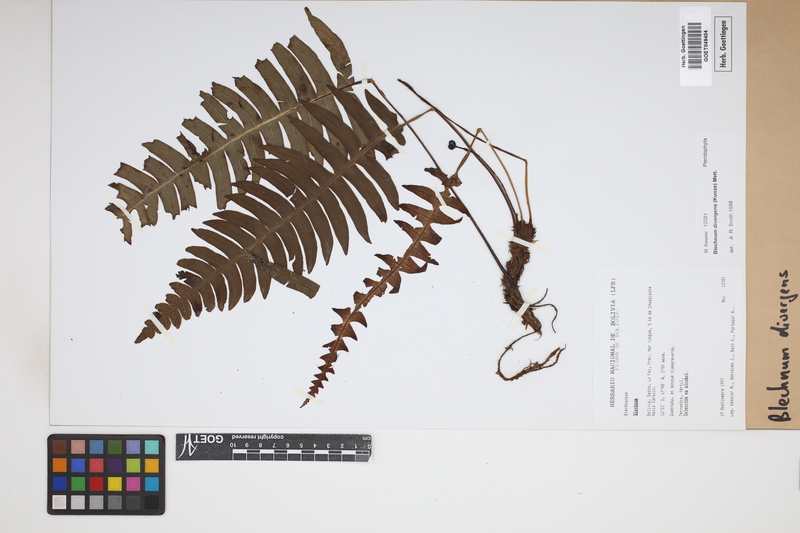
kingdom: Plantae
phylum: Tracheophyta
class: Polypodiopsida
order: Polypodiales
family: Blechnaceae
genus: Austroblechnum
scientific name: Austroblechnum divergens
